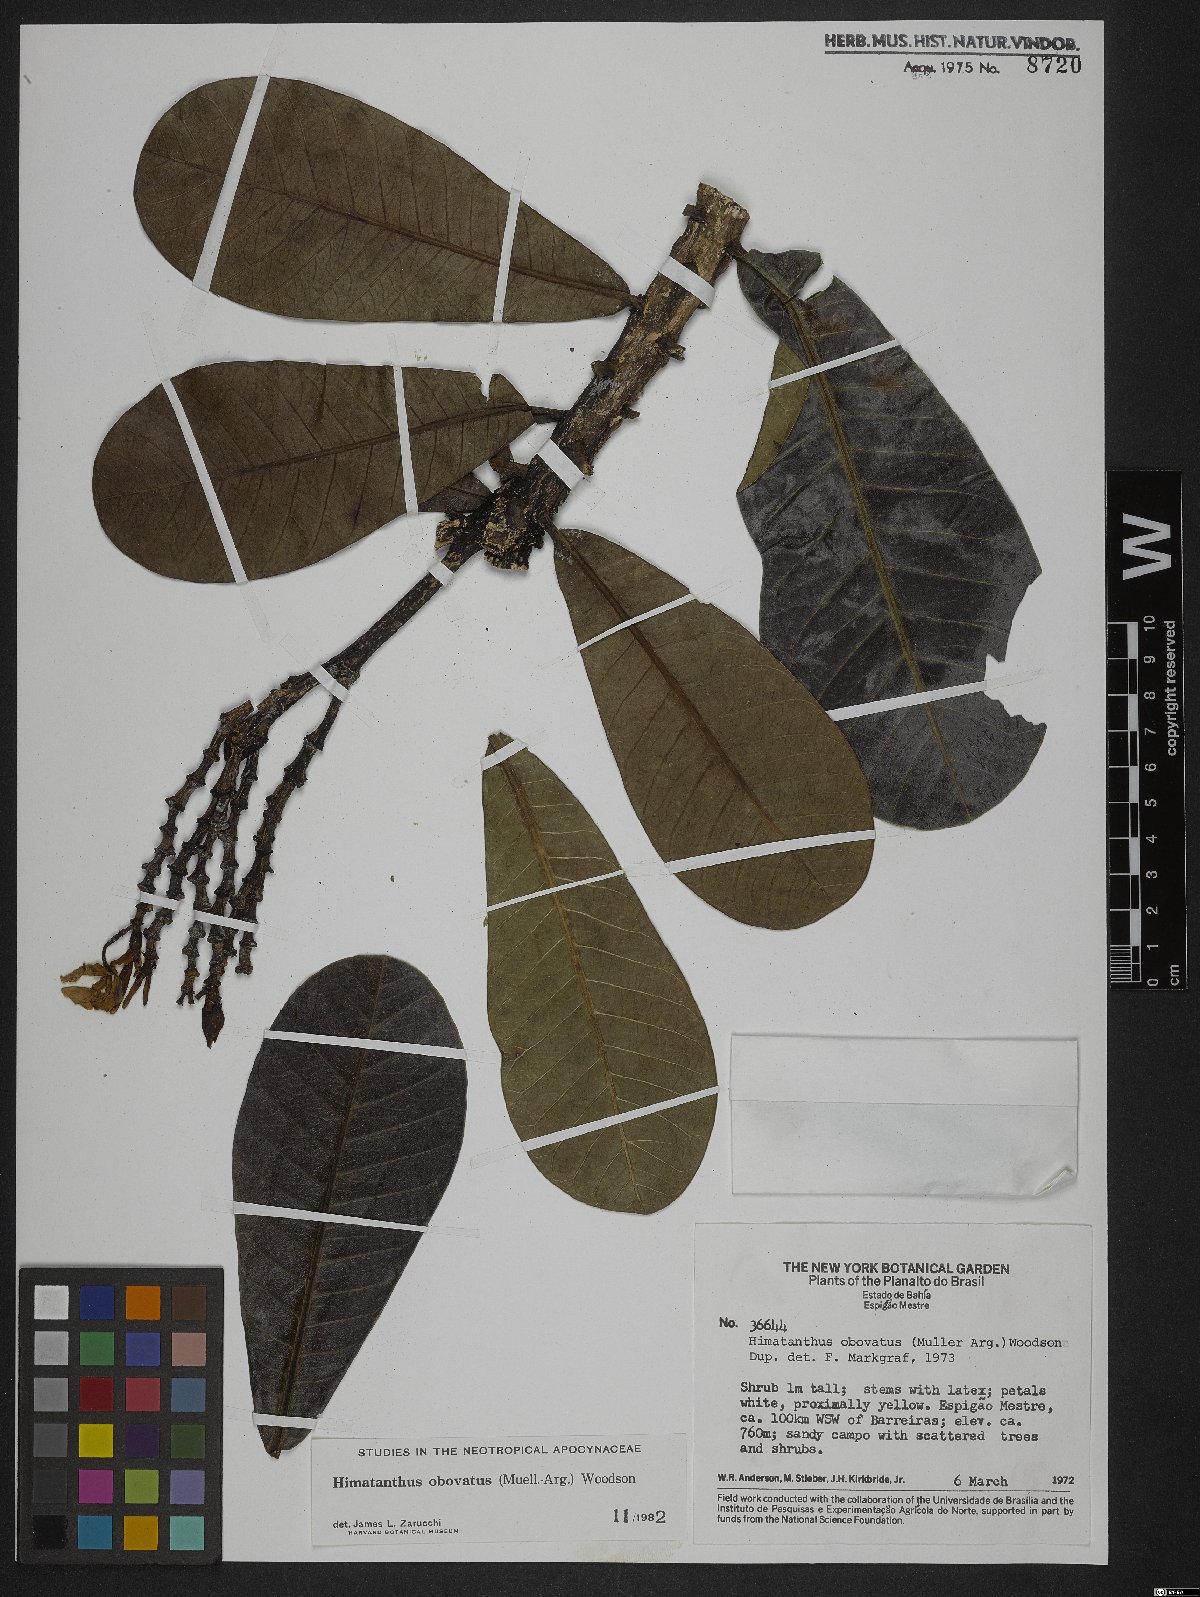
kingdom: Plantae
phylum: Tracheophyta
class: Magnoliopsida
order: Gentianales
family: Apocynaceae
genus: Himatanthus
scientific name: Himatanthus obovatus
